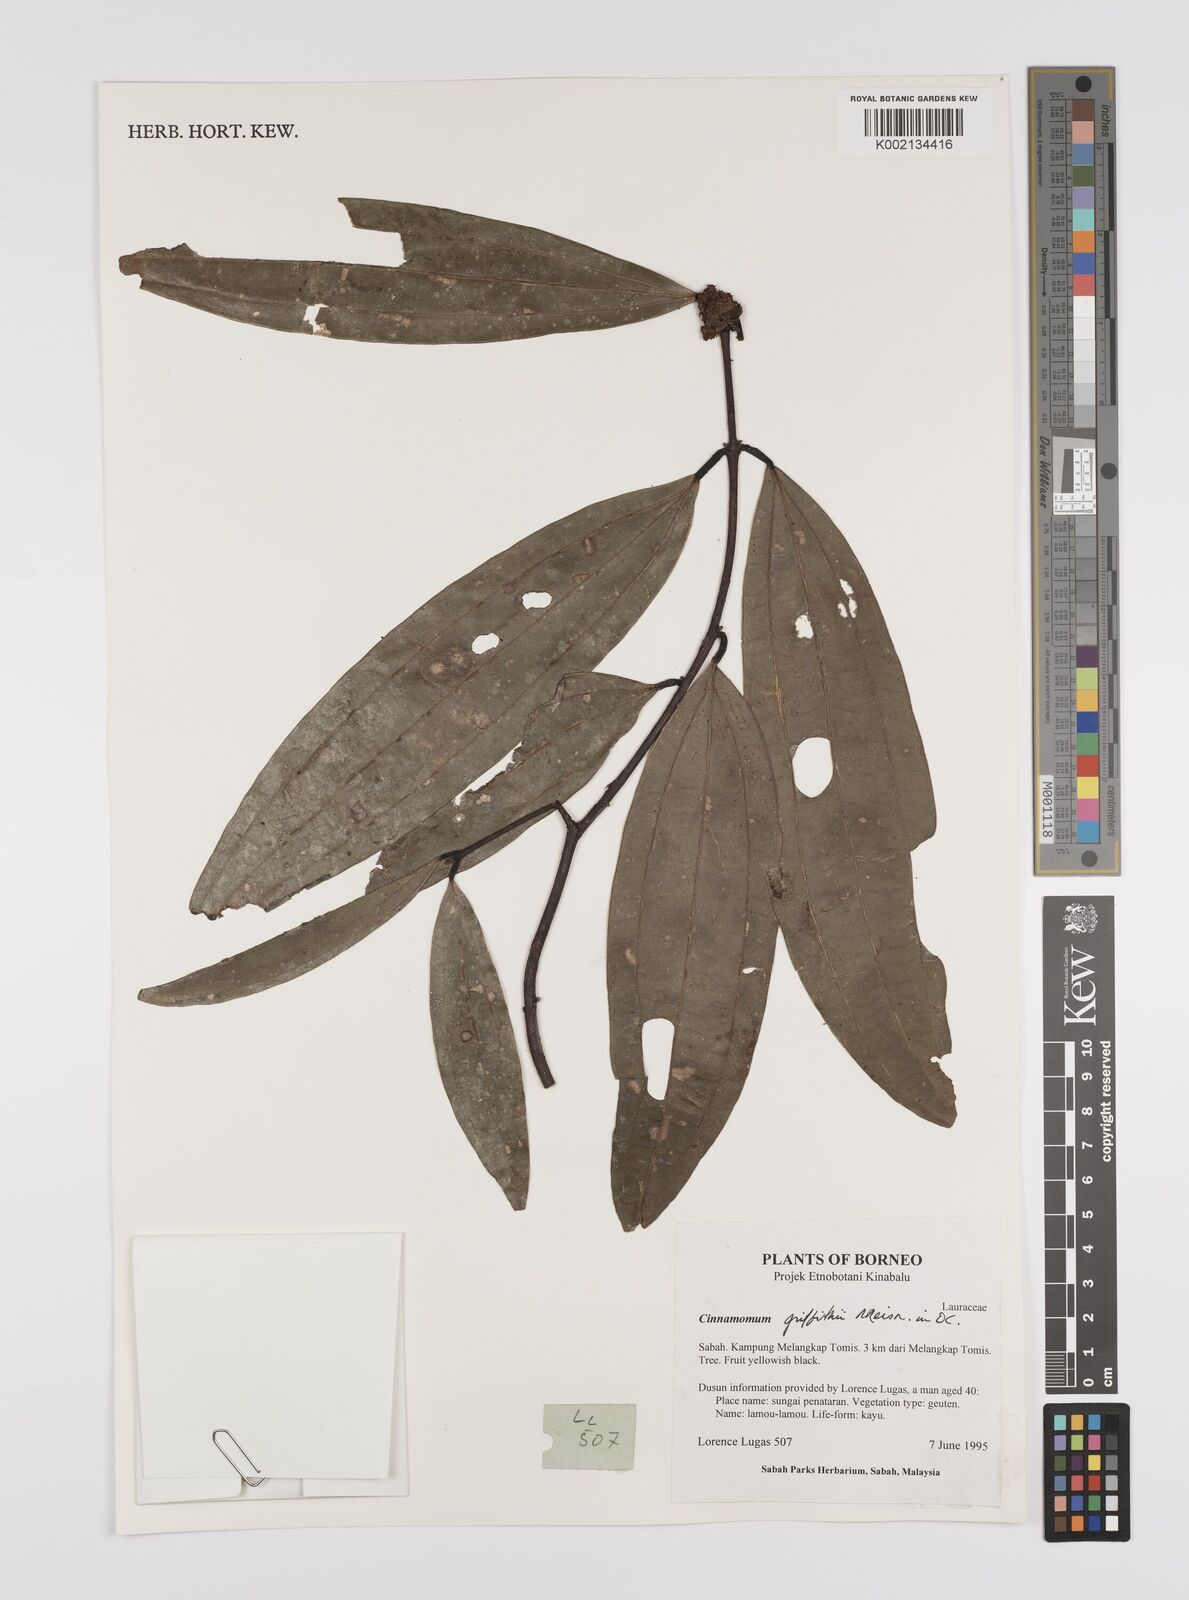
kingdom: Plantae
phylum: Tracheophyta
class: Magnoliopsida
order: Laurales
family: Lauraceae
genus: Cinnamomum
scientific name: Cinnamomum iners
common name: Wild cinnamon
